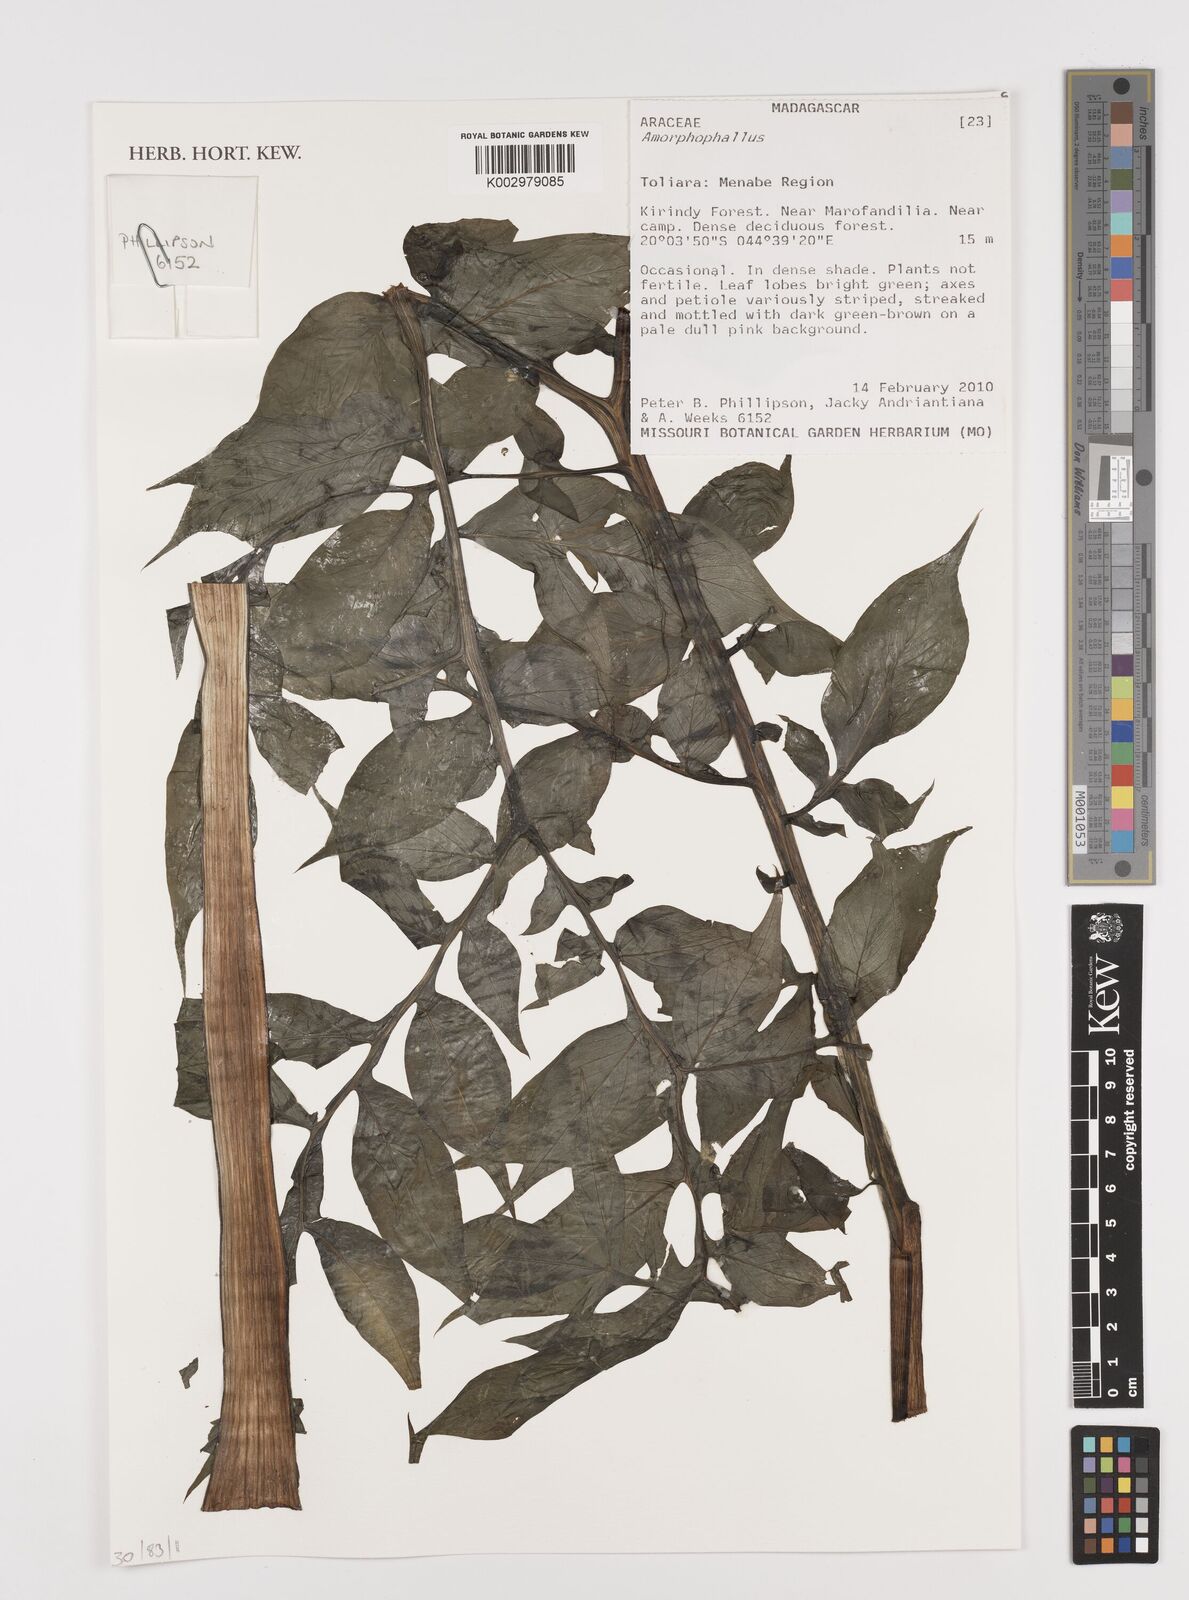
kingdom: Plantae
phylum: Tracheophyta
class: Liliopsida
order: Alismatales
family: Araceae
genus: Amorphophallus
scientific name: Amorphophallus
